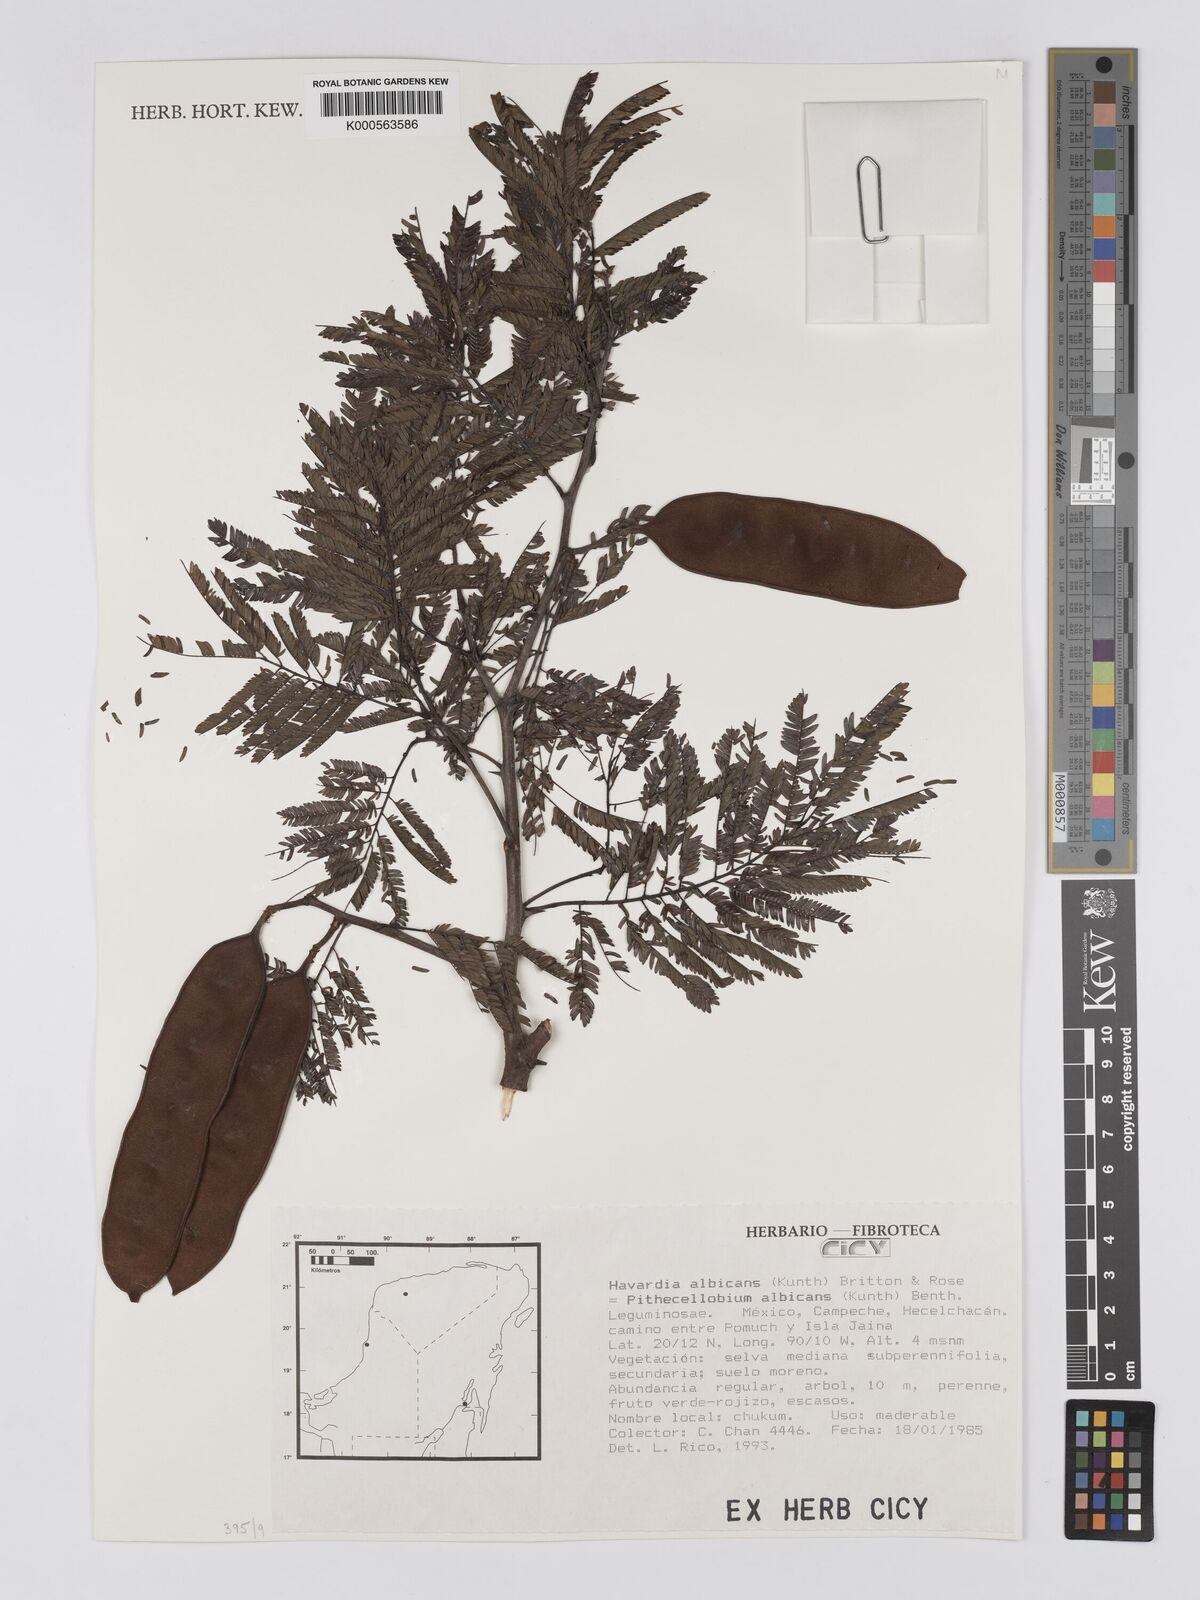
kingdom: Plantae
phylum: Tracheophyta
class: Magnoliopsida
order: Fabales
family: Fabaceae
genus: Havardia
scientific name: Havardia albicans
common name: Huisache
